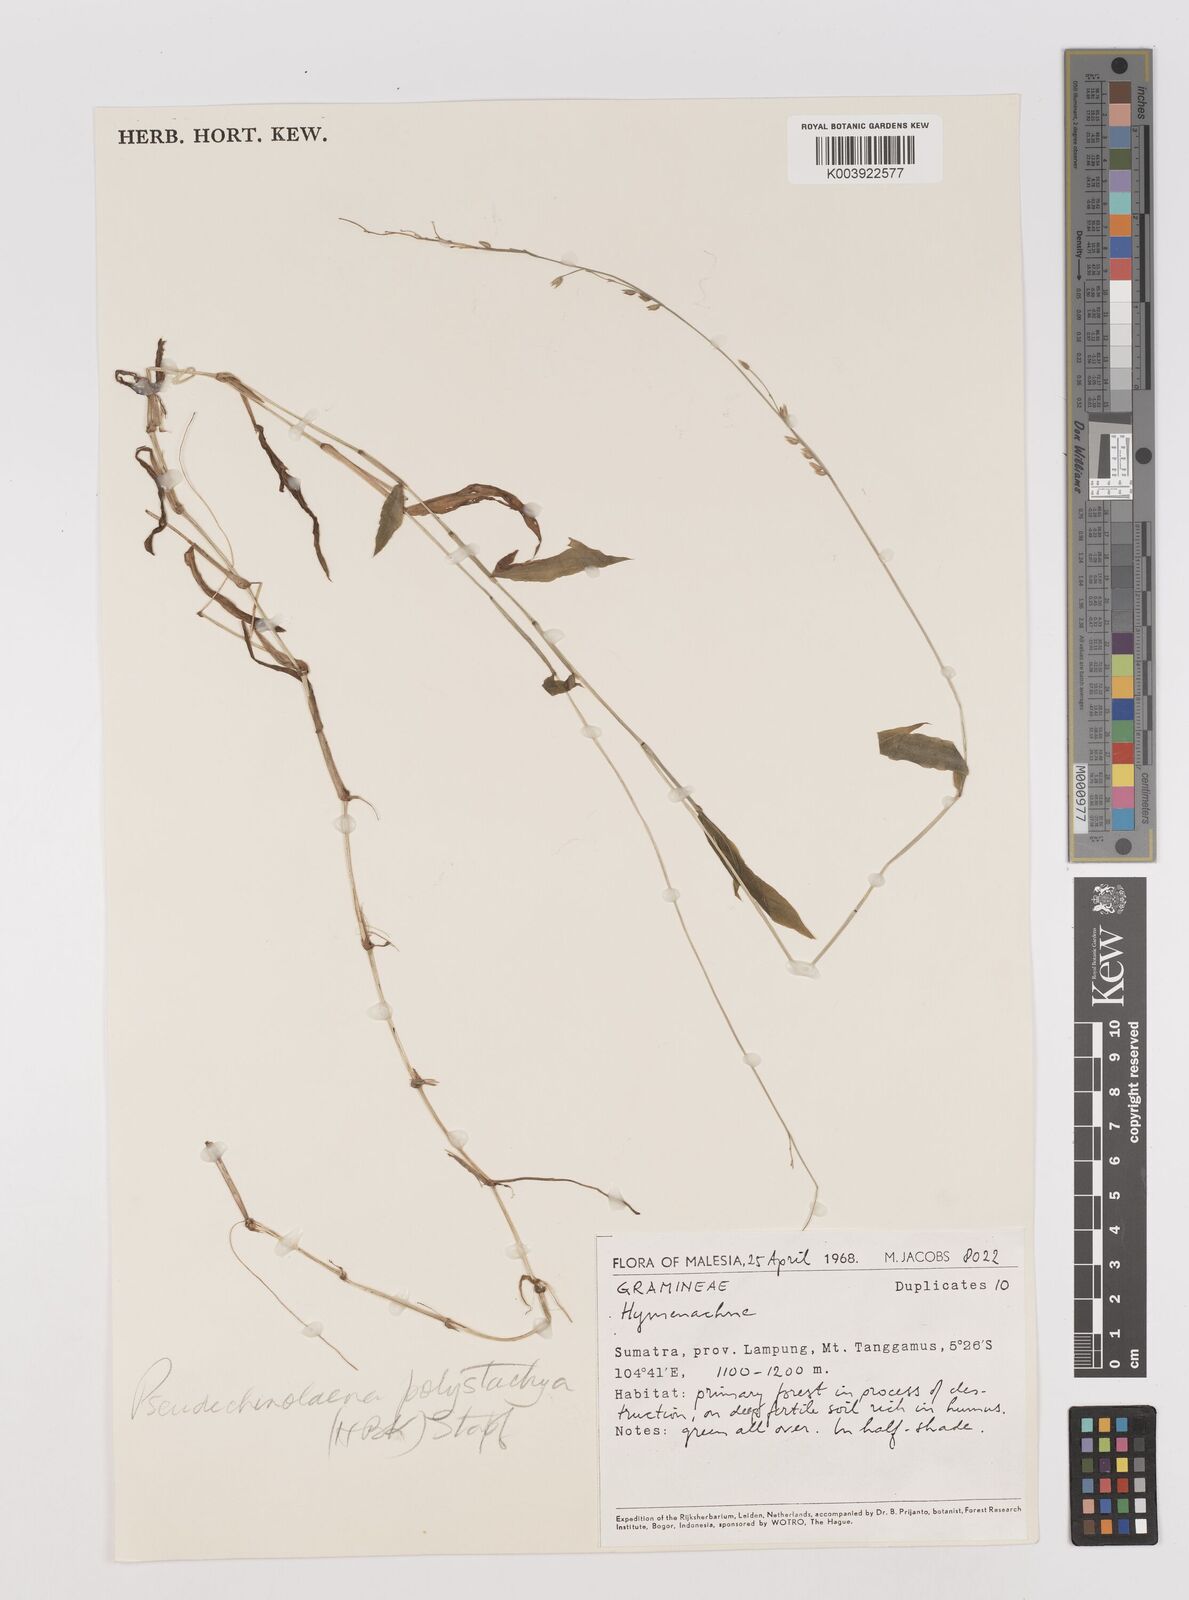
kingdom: Plantae
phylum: Tracheophyta
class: Liliopsida
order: Poales
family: Poaceae
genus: Pseudechinolaena
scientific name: Pseudechinolaena polystachya
